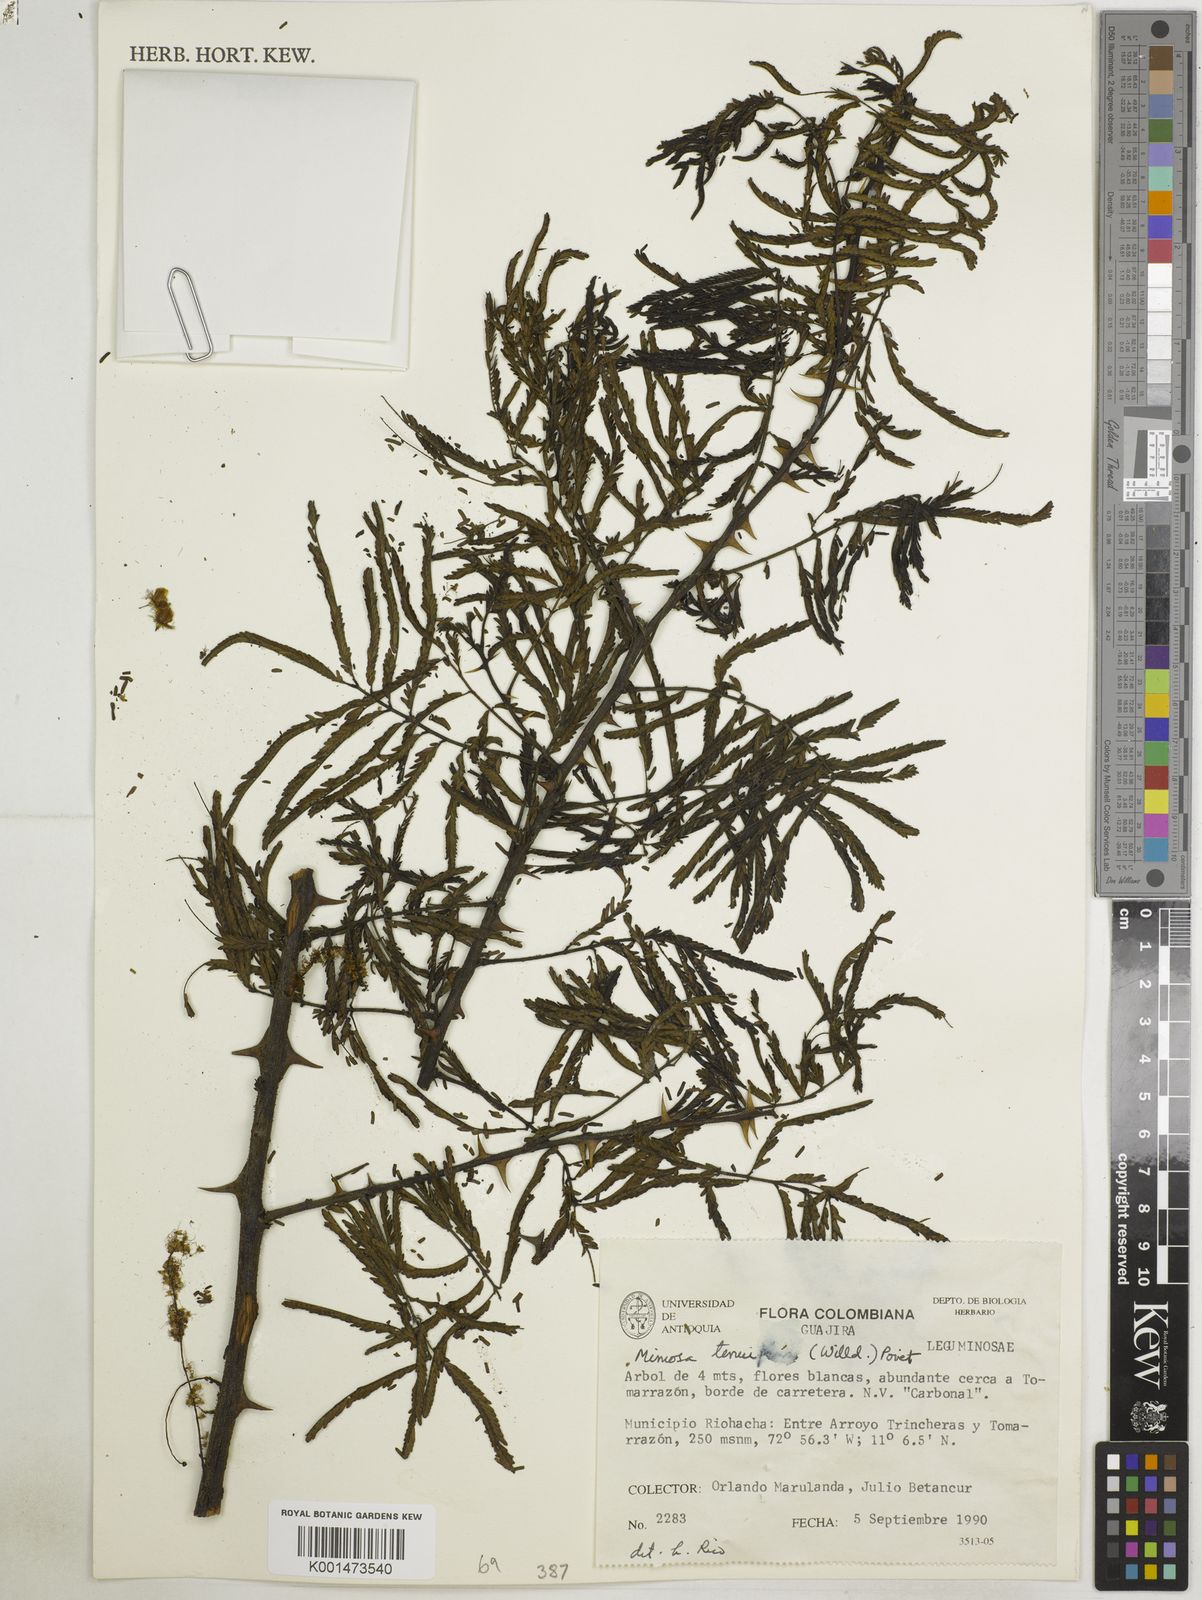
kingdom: Plantae
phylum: Tracheophyta
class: Magnoliopsida
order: Fabales
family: Fabaceae
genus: Mimosa
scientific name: Mimosa tenuiflora
